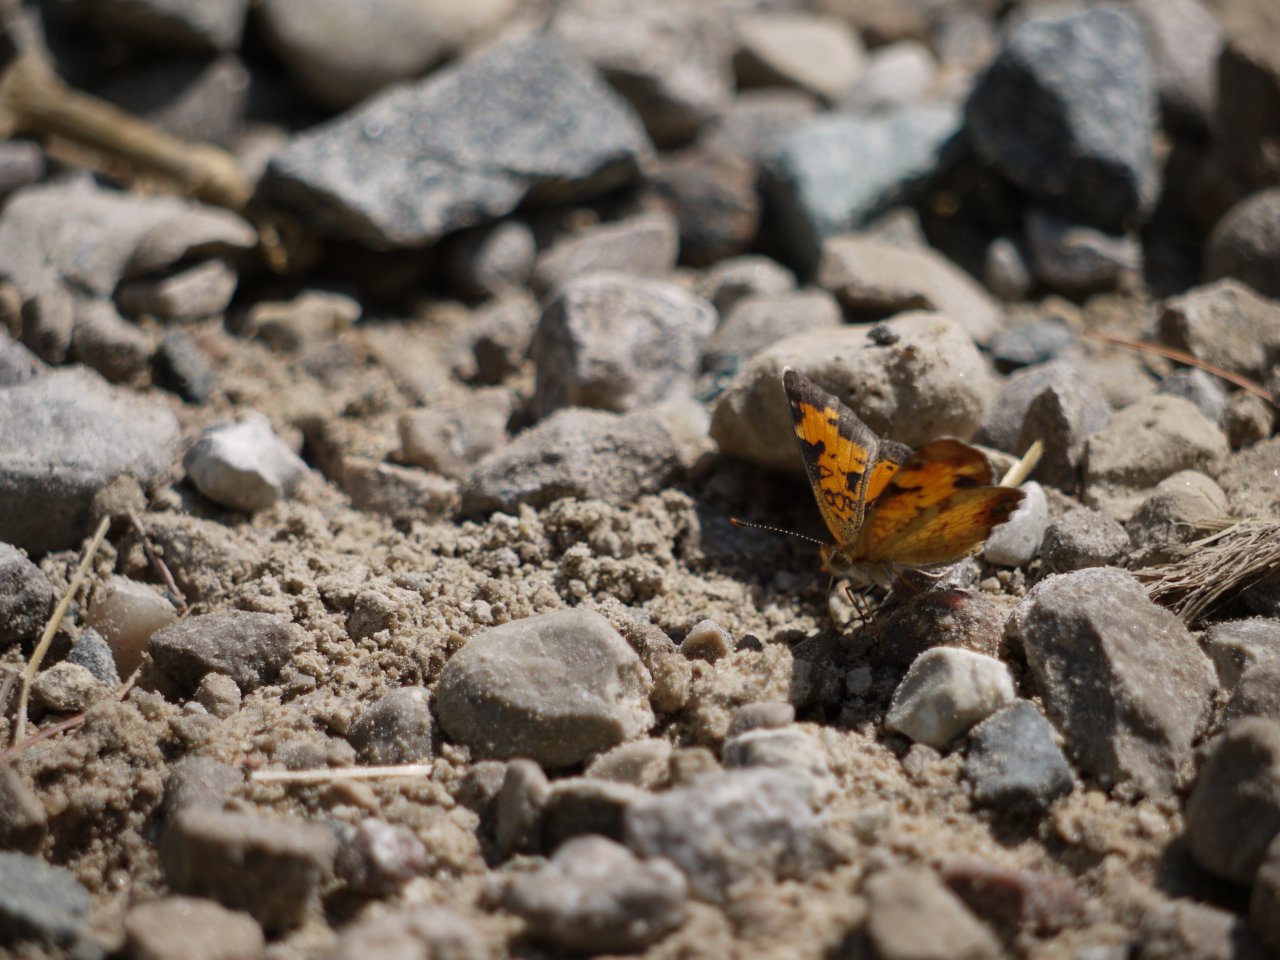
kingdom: Animalia
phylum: Arthropoda
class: Insecta
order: Lepidoptera
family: Nymphalidae
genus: Phyciodes
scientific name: Phyciodes tharos
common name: Northern Crescent
